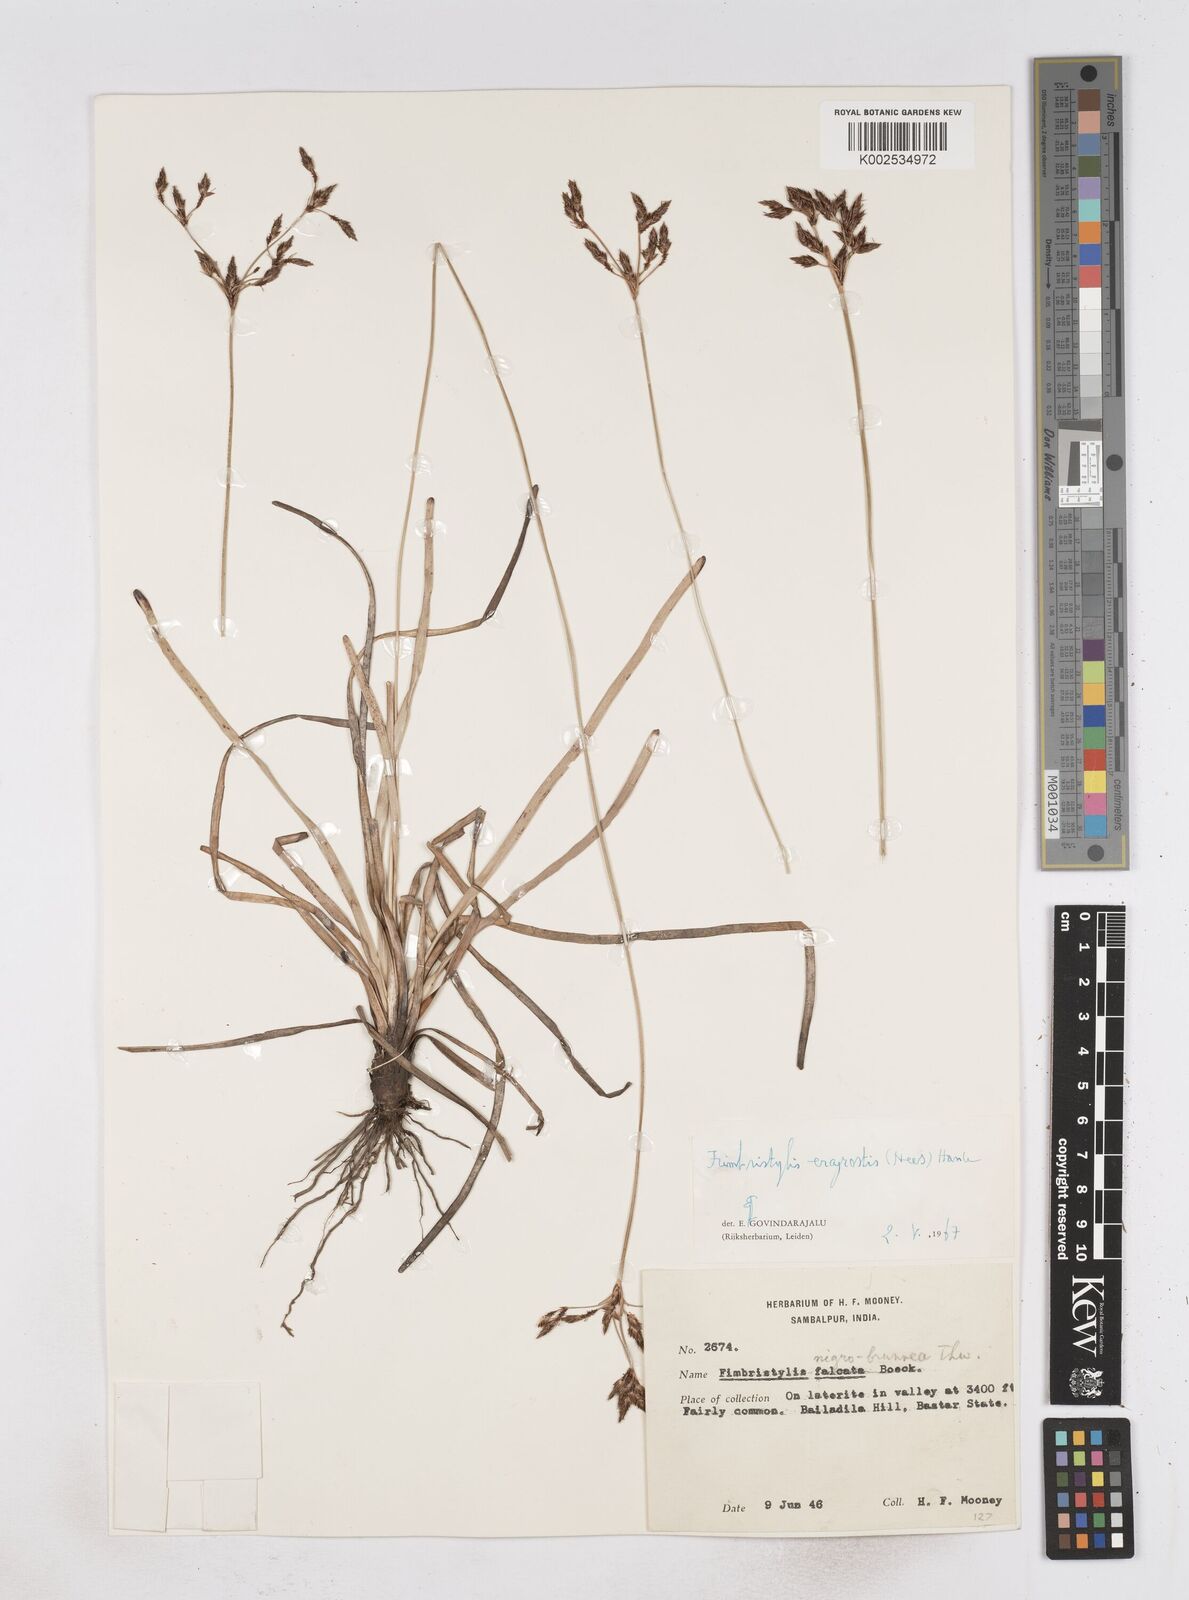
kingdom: Plantae
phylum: Tracheophyta
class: Liliopsida
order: Poales
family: Cyperaceae
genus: Fimbristylis
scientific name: Fimbristylis nigrobrunnea
